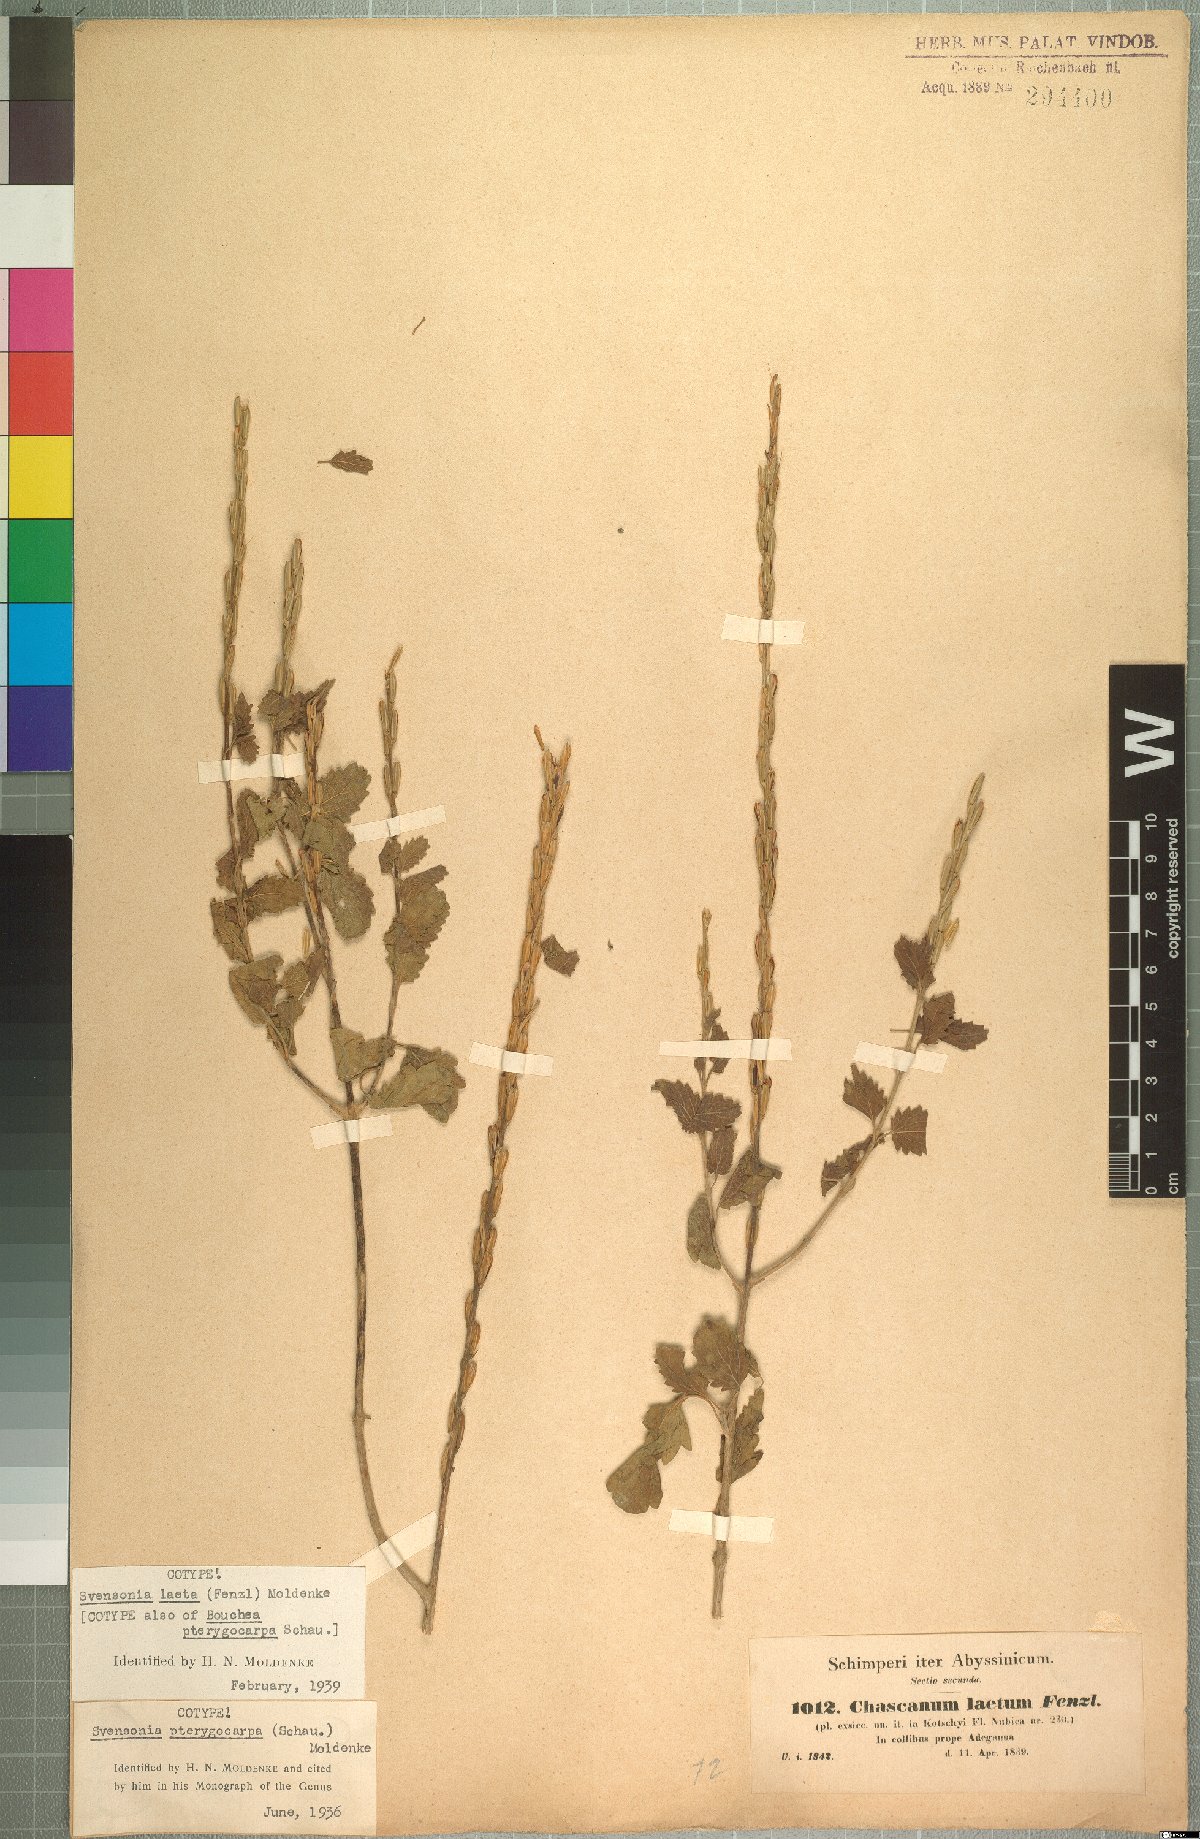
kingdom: Plantae
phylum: Tracheophyta
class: Magnoliopsida
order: Lamiales
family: Verbenaceae
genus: Chascanum
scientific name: Chascanum laetum
